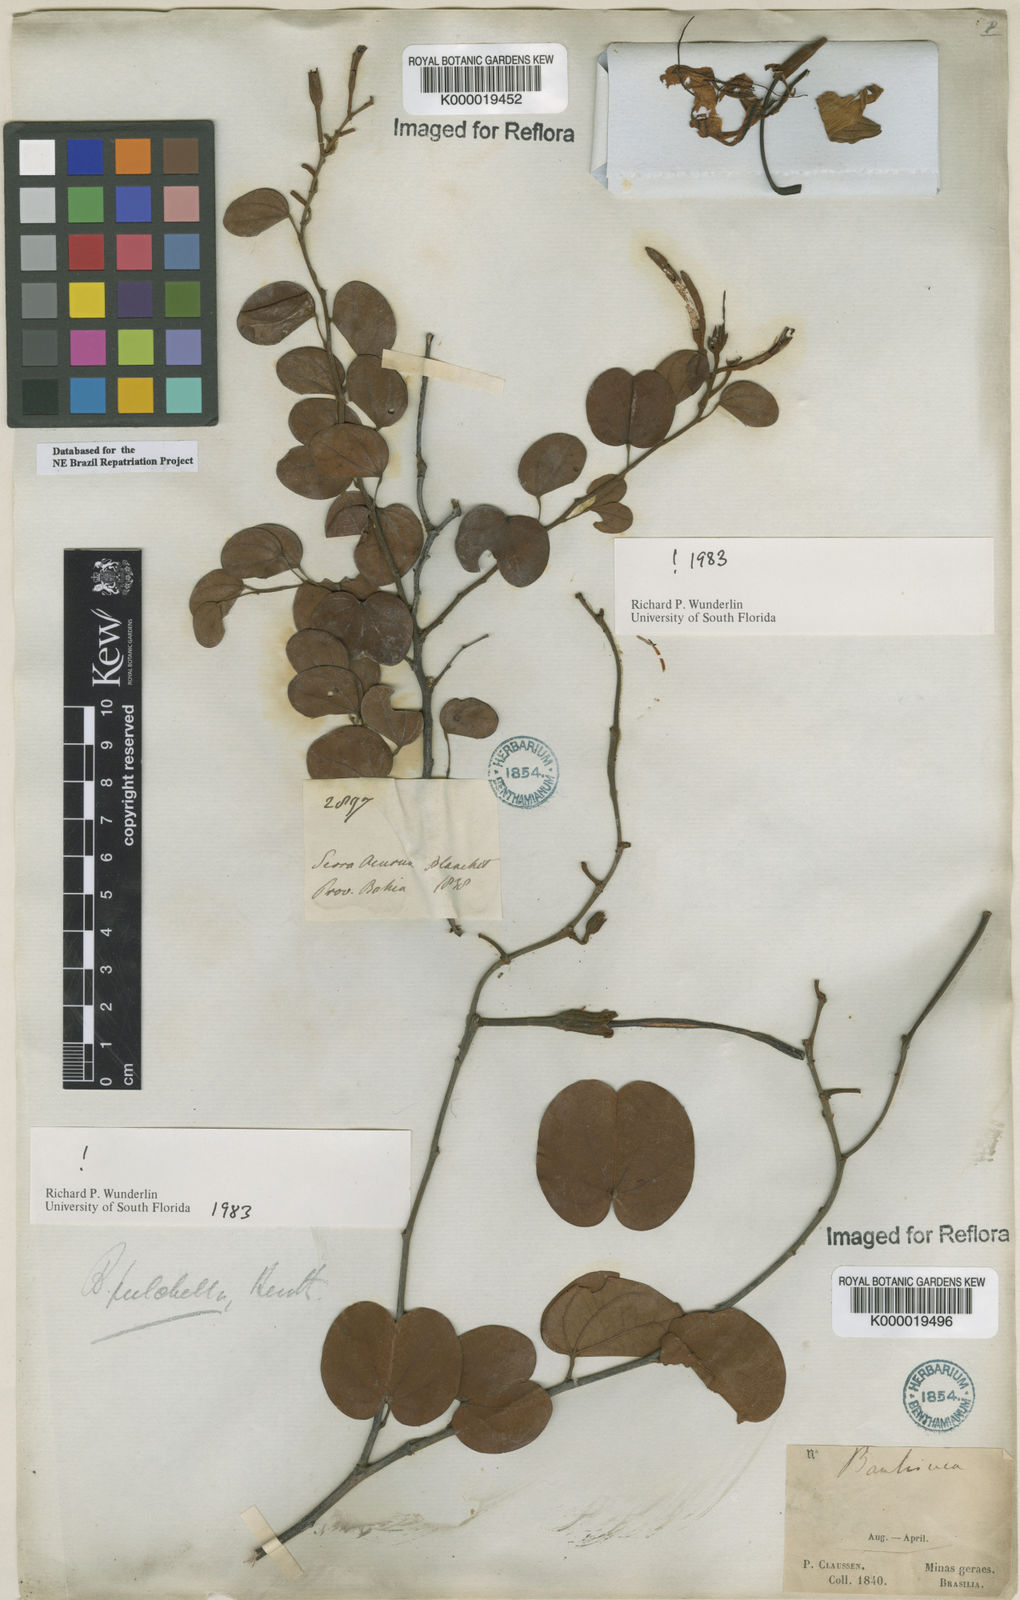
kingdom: Plantae
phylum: Tracheophyta
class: Magnoliopsida
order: Fabales
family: Fabaceae
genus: Bauhinia
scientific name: Bauhinia pulchella
